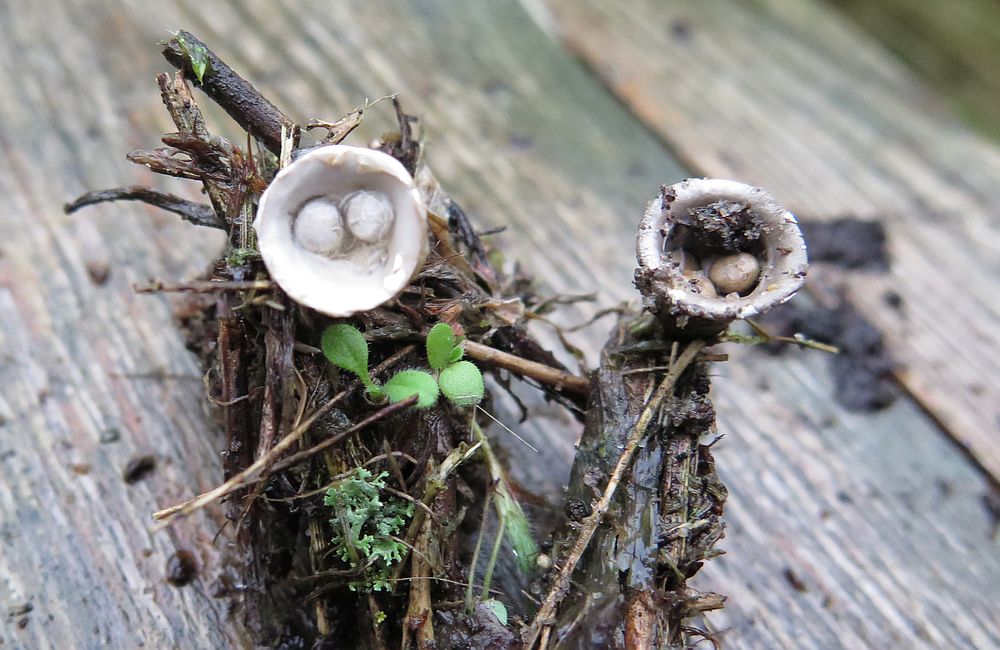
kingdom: Fungi
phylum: Basidiomycota
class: Agaricomycetes
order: Agaricales
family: Agaricaceae
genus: Cyathus
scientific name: Cyathus olla
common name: klokke-redesvamp
